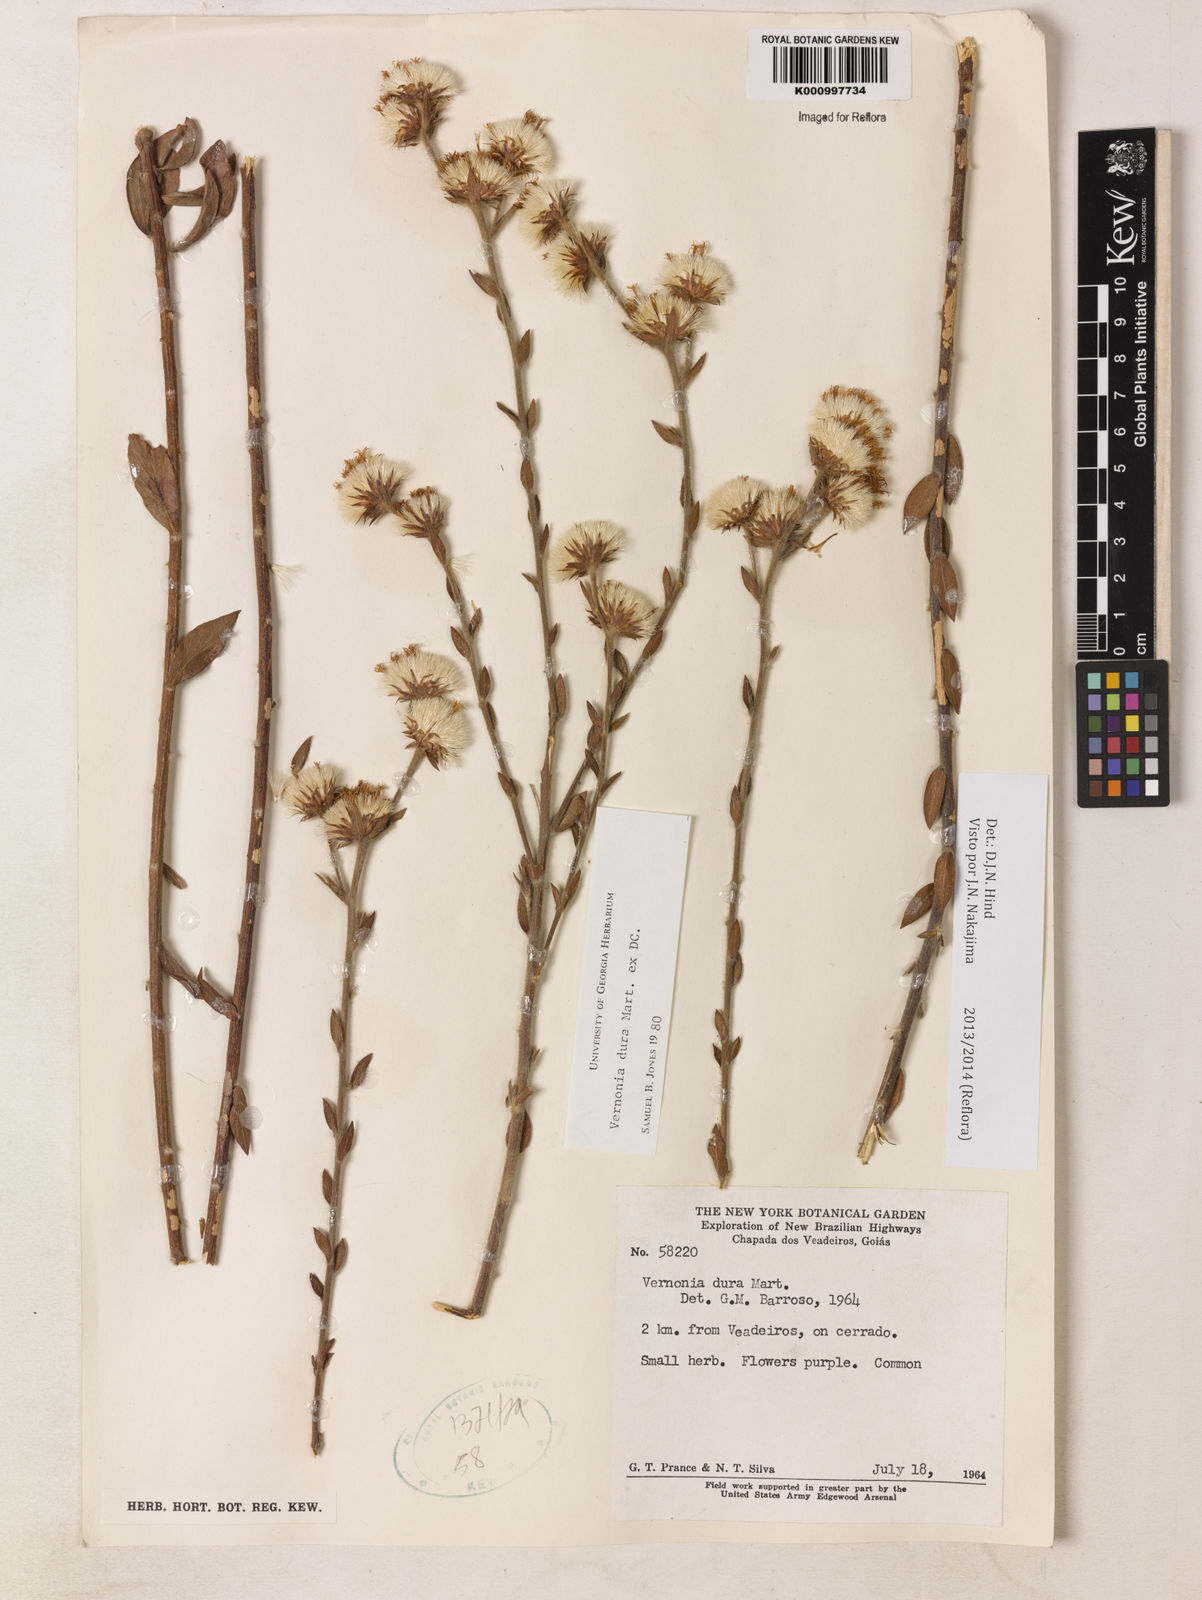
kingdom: Plantae
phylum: Tracheophyta
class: Magnoliopsida
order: Asterales
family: Asteraceae
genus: Lessingianthus
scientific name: Lessingianthus durus
